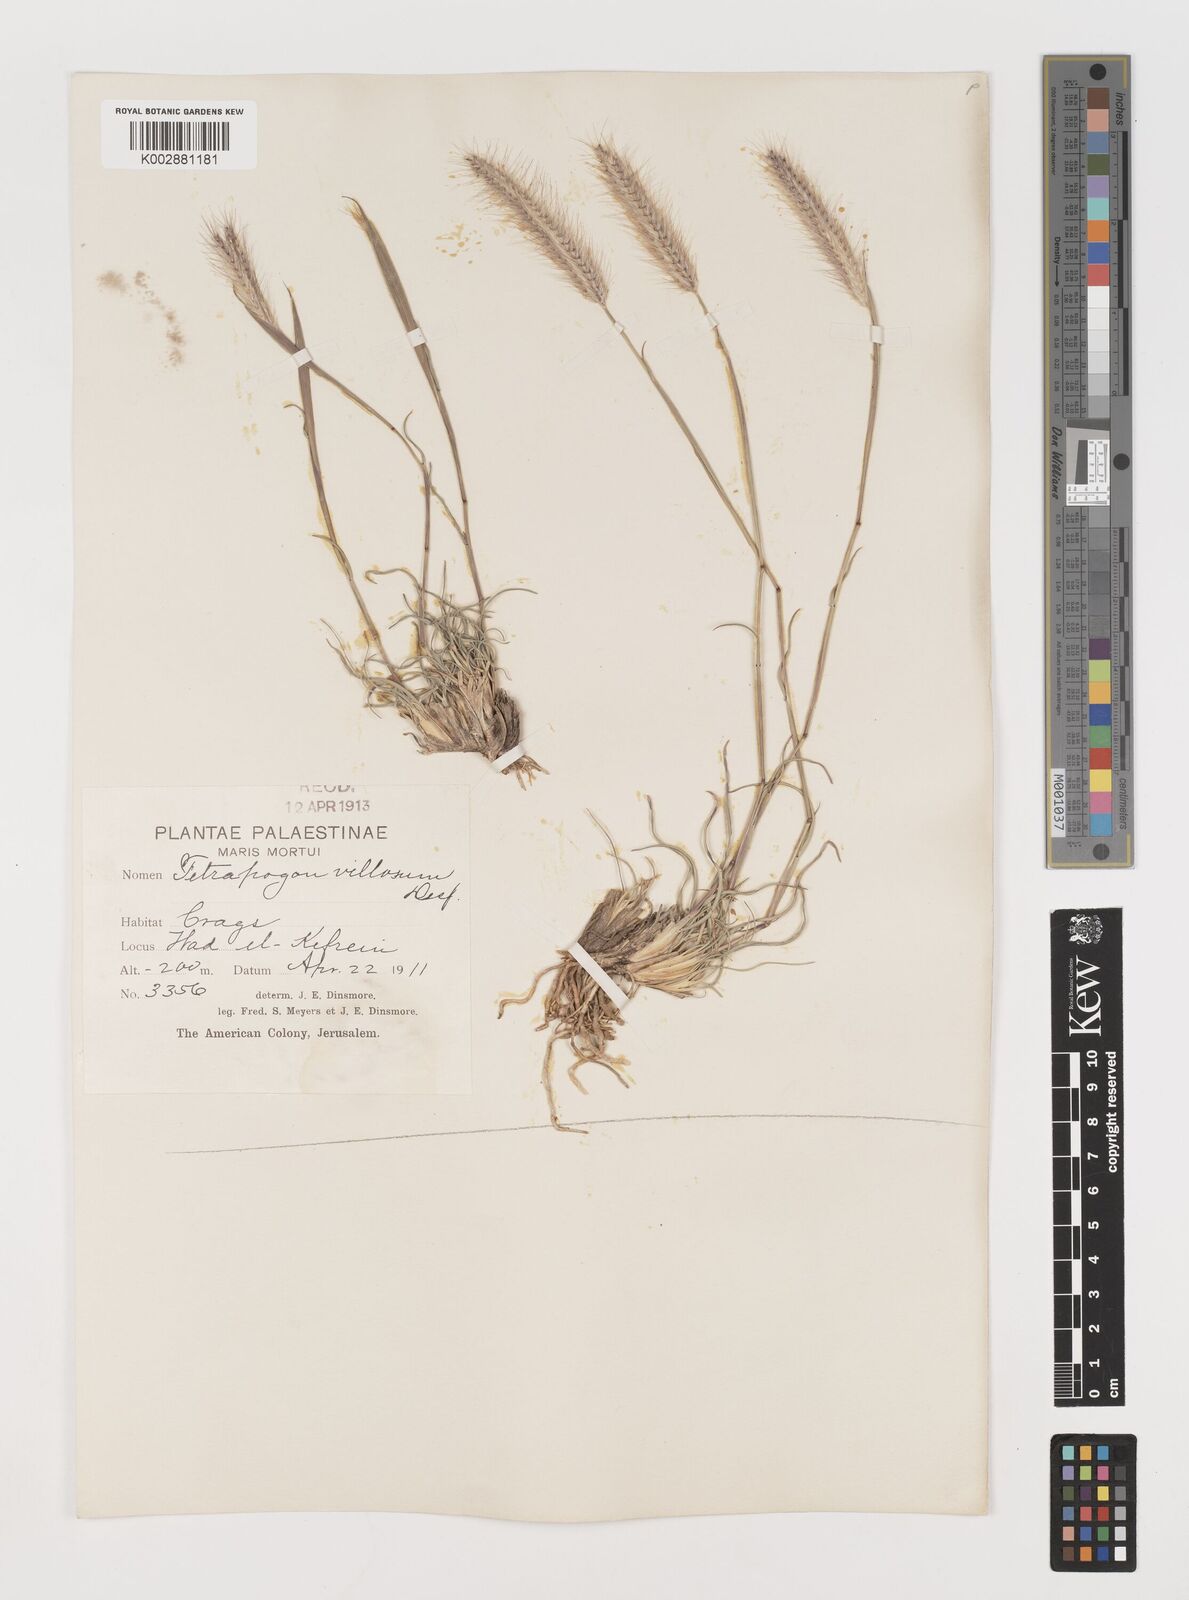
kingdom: Plantae
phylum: Tracheophyta
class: Liliopsida
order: Poales
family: Poaceae
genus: Tetrapogon
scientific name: Tetrapogon villosus
